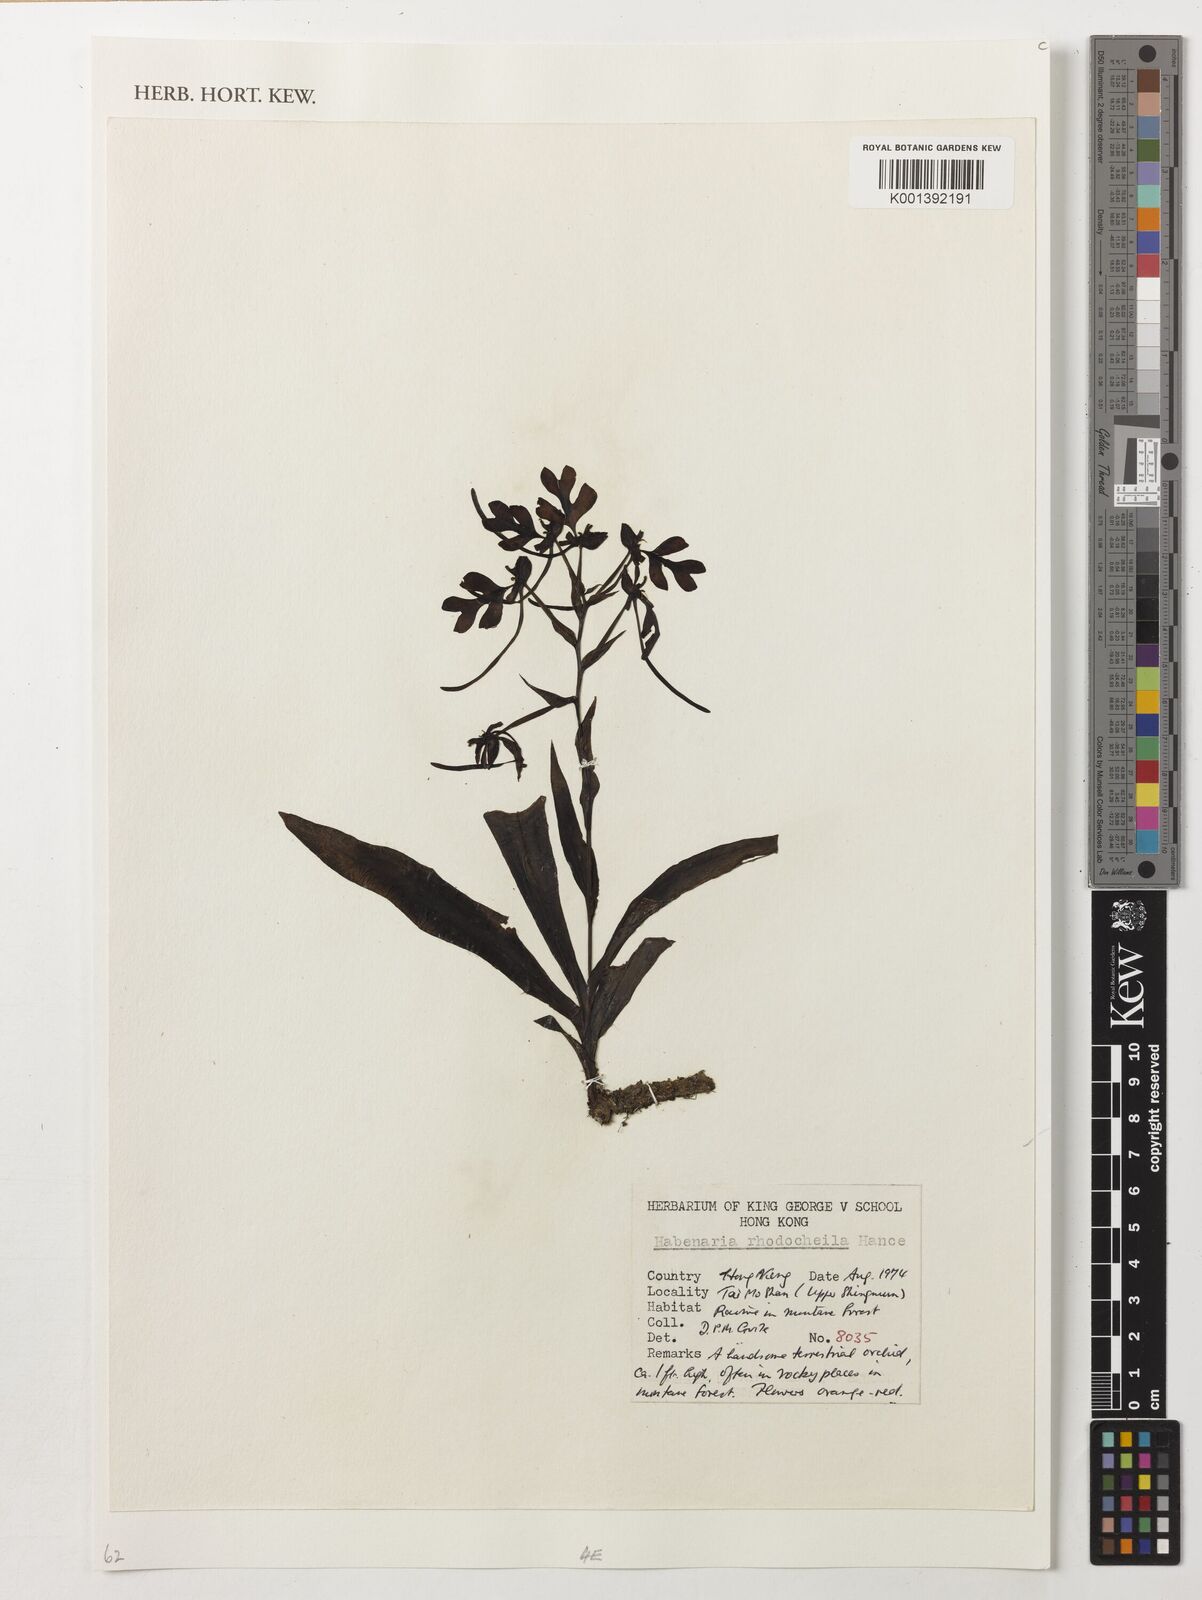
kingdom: Plantae
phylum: Tracheophyta
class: Liliopsida
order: Asparagales
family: Orchidaceae
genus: Habenaria
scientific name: Habenaria rhodocheila
